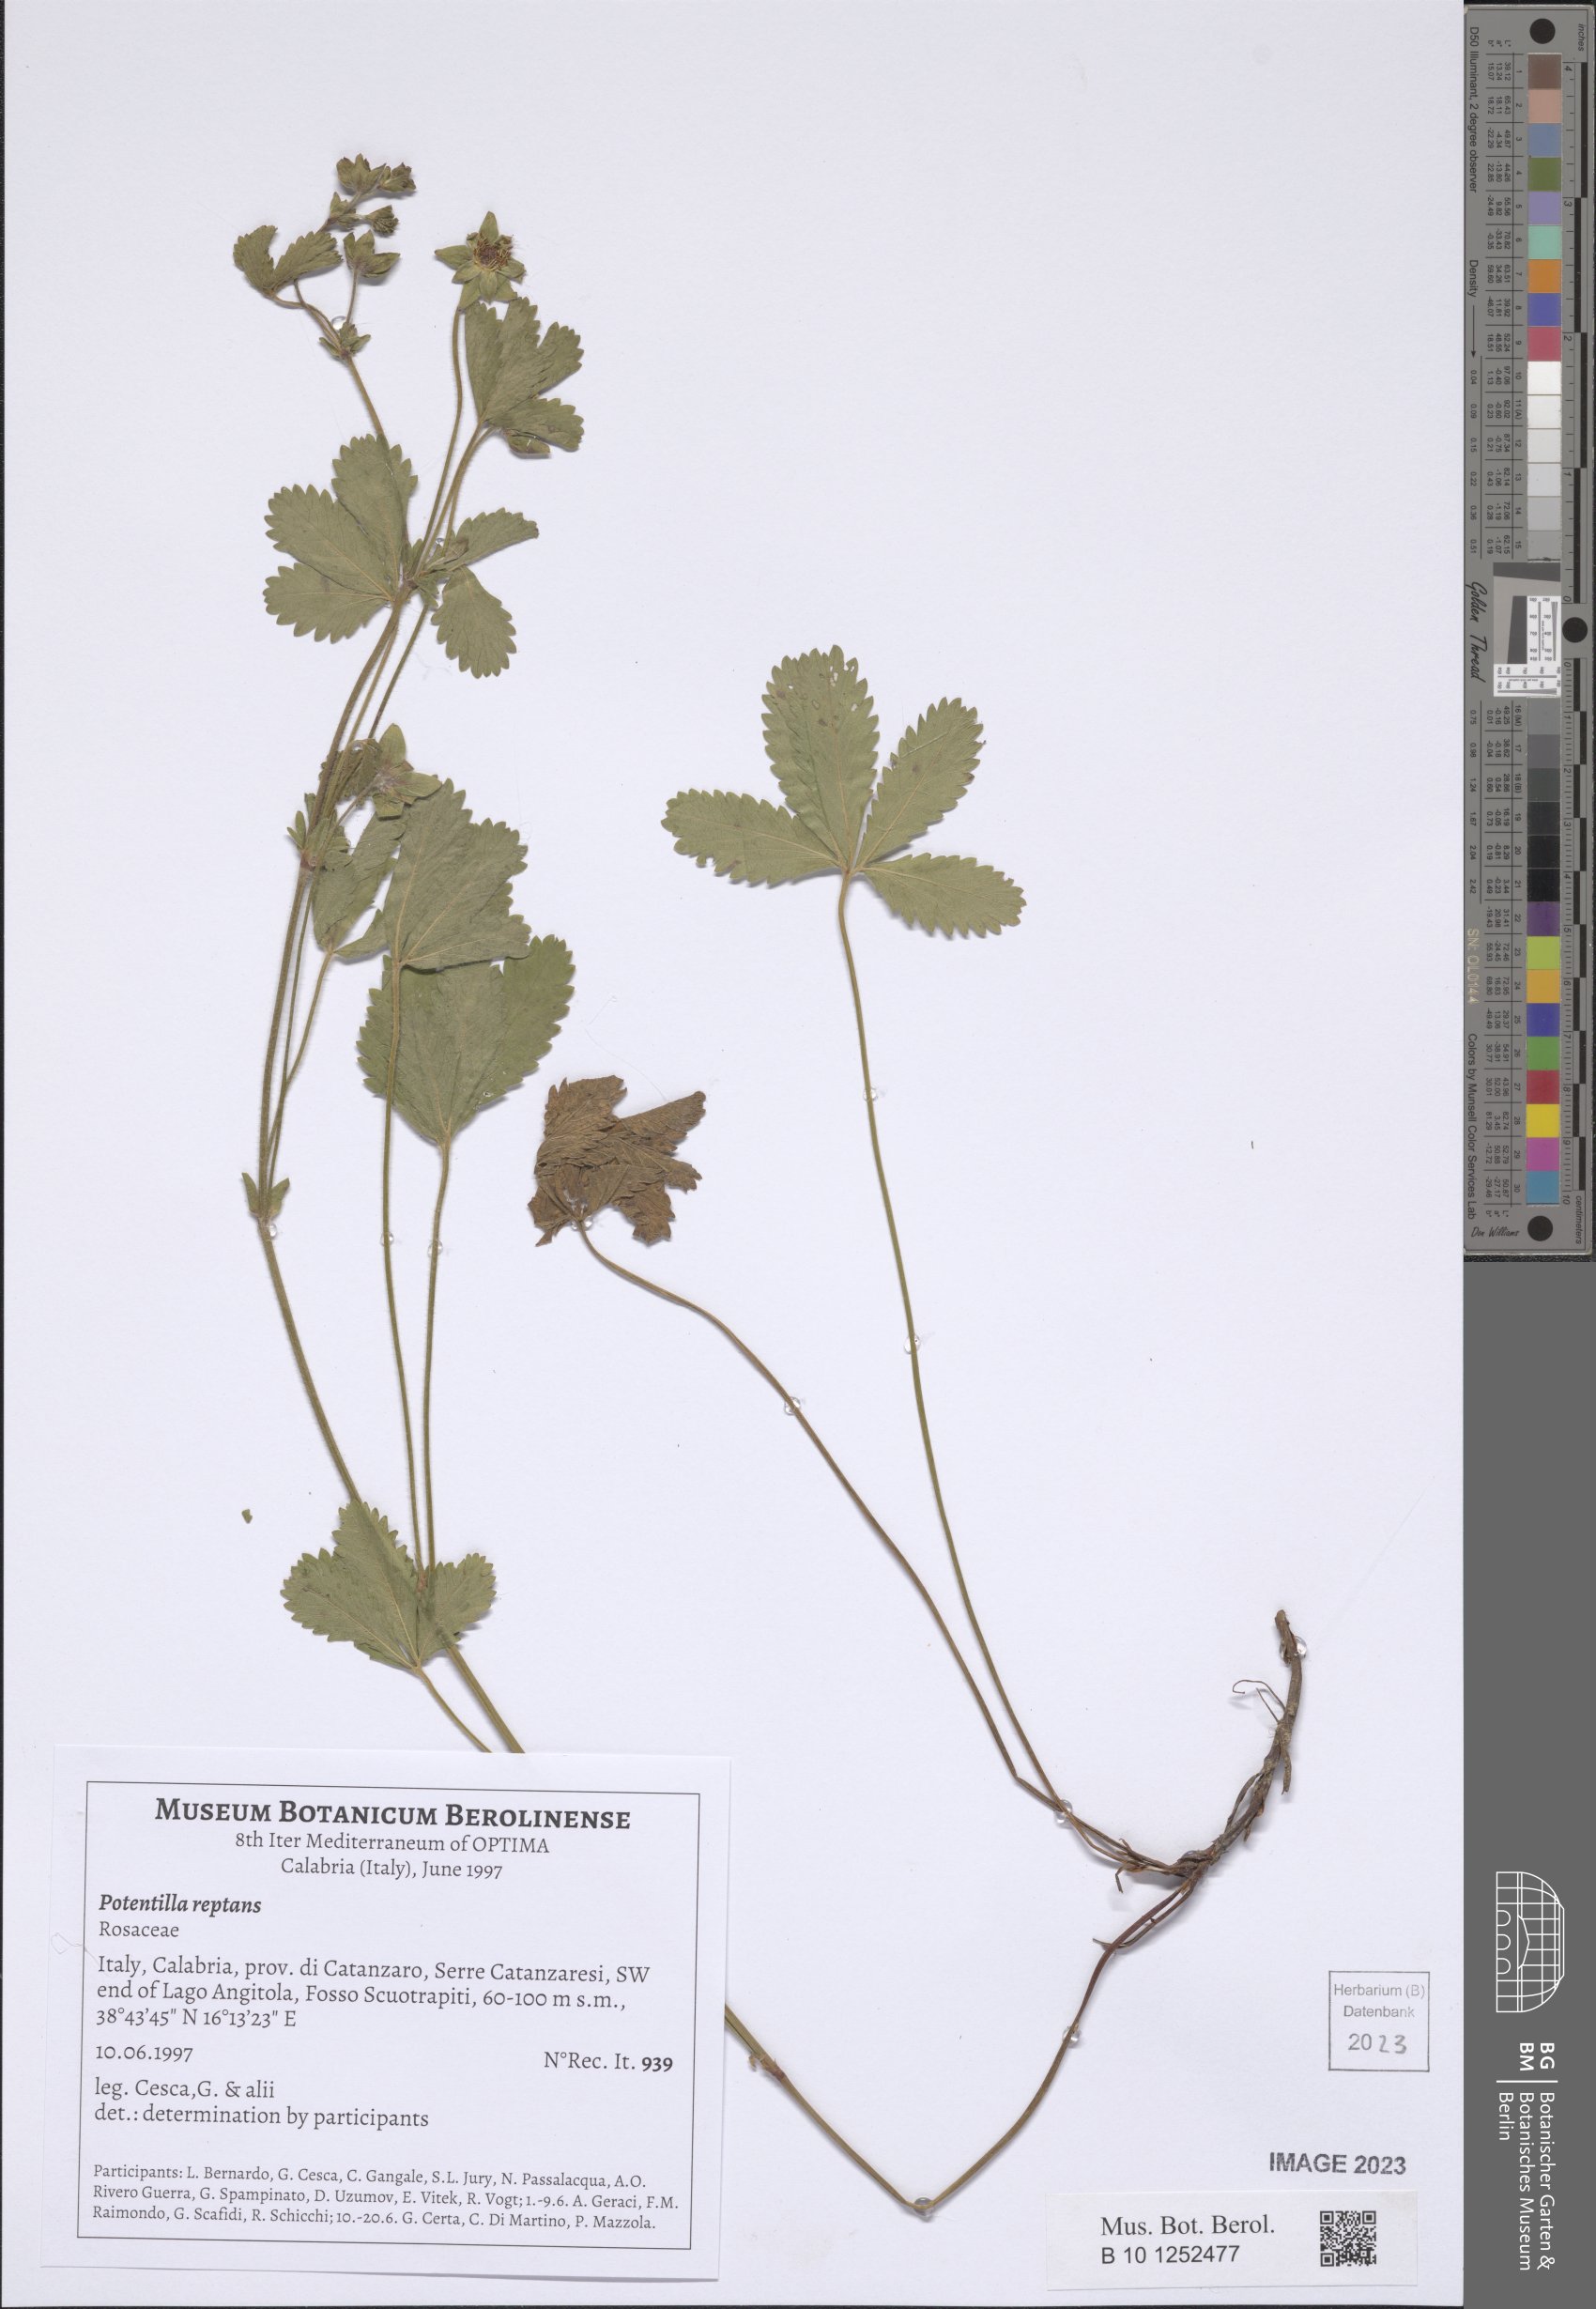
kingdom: Plantae
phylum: Tracheophyta
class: Magnoliopsida
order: Rosales
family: Rosaceae
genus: Potentilla
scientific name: Potentilla reptans
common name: Creeping cinquefoil
